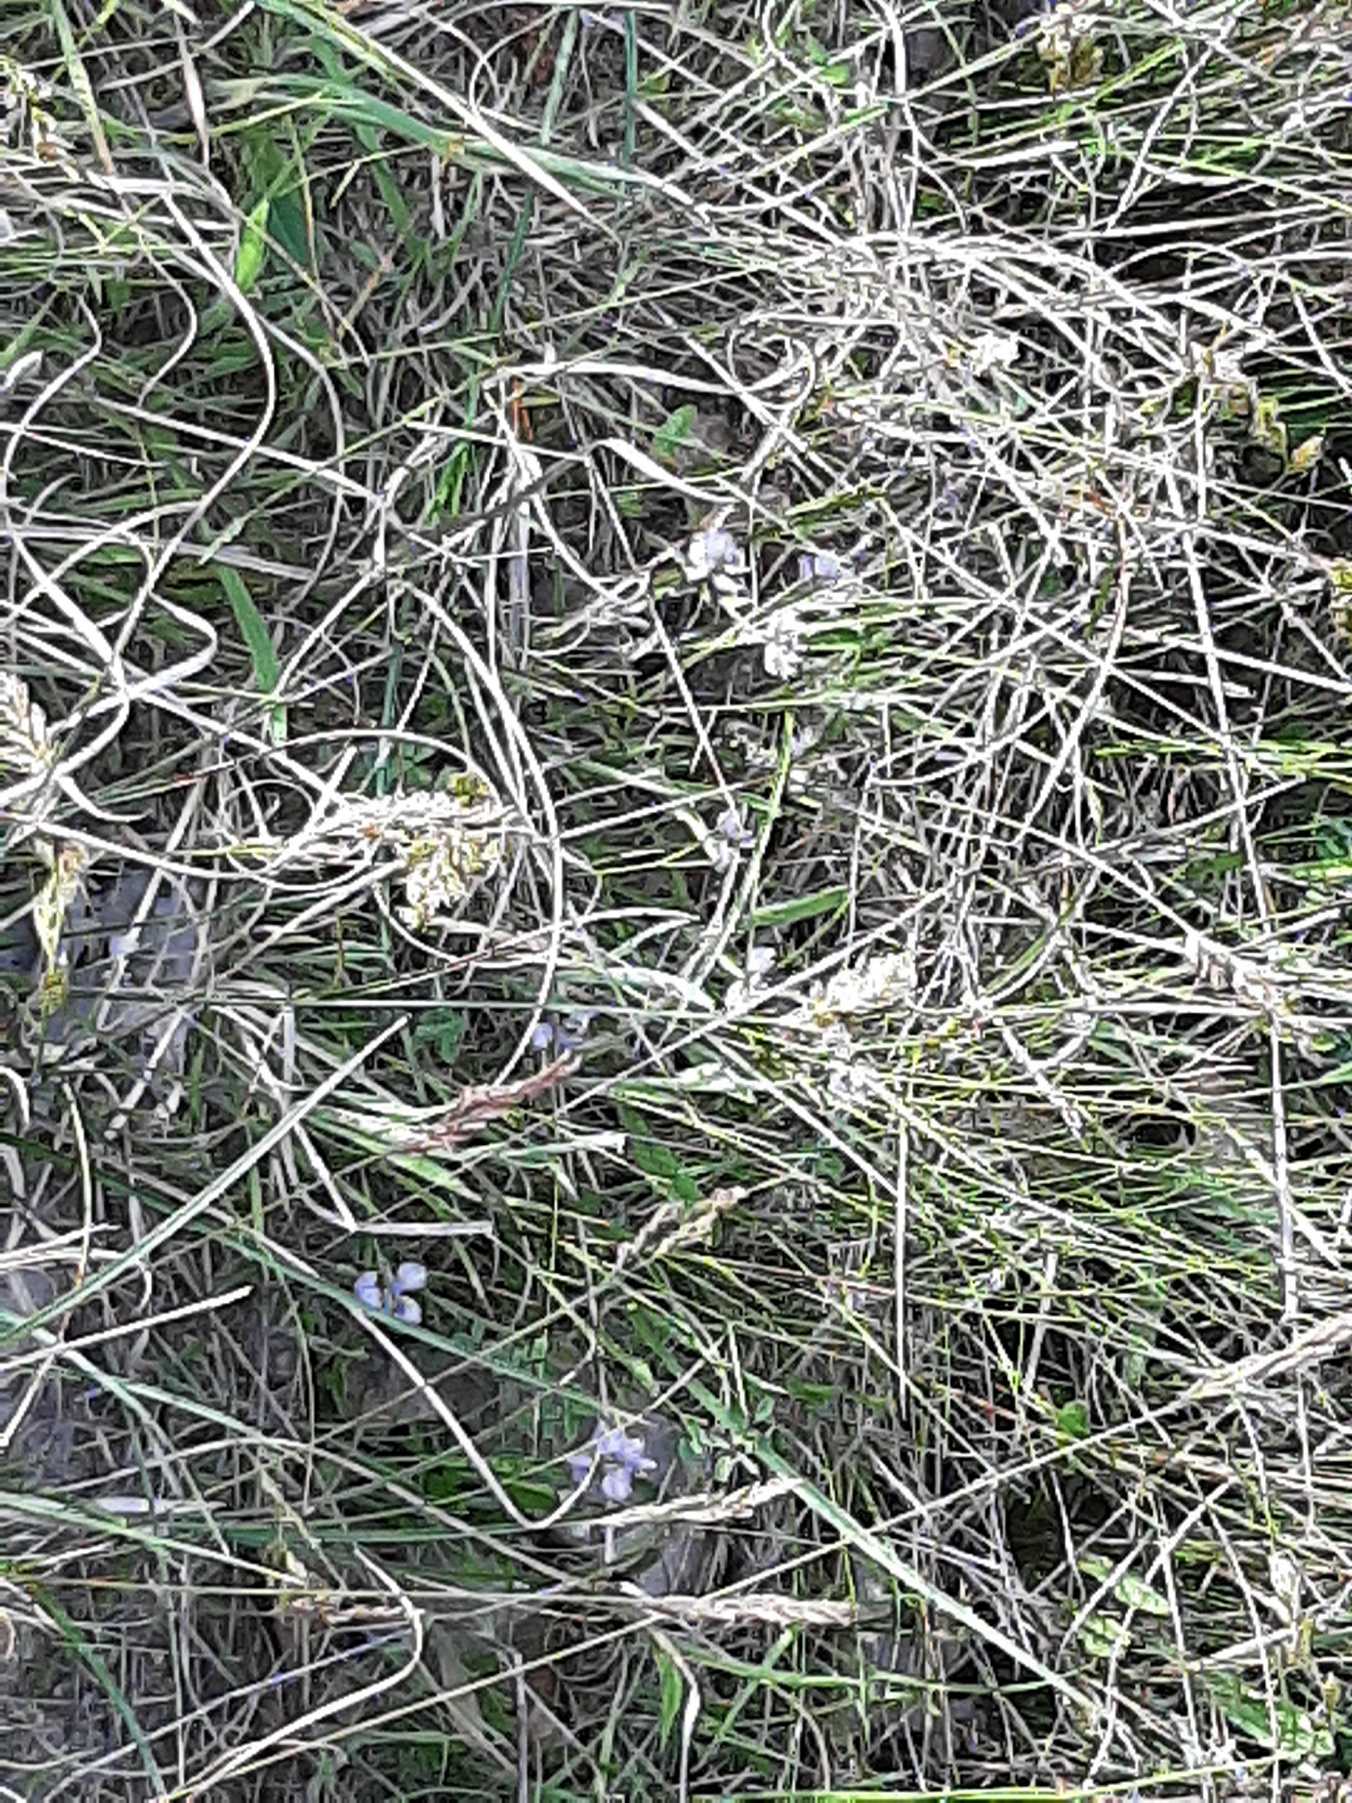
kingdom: Plantae
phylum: Tracheophyta
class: Magnoliopsida
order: Fabales
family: Polygalaceae
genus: Polygala
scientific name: Polygala vulgaris
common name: Almindelig mælkeurt
